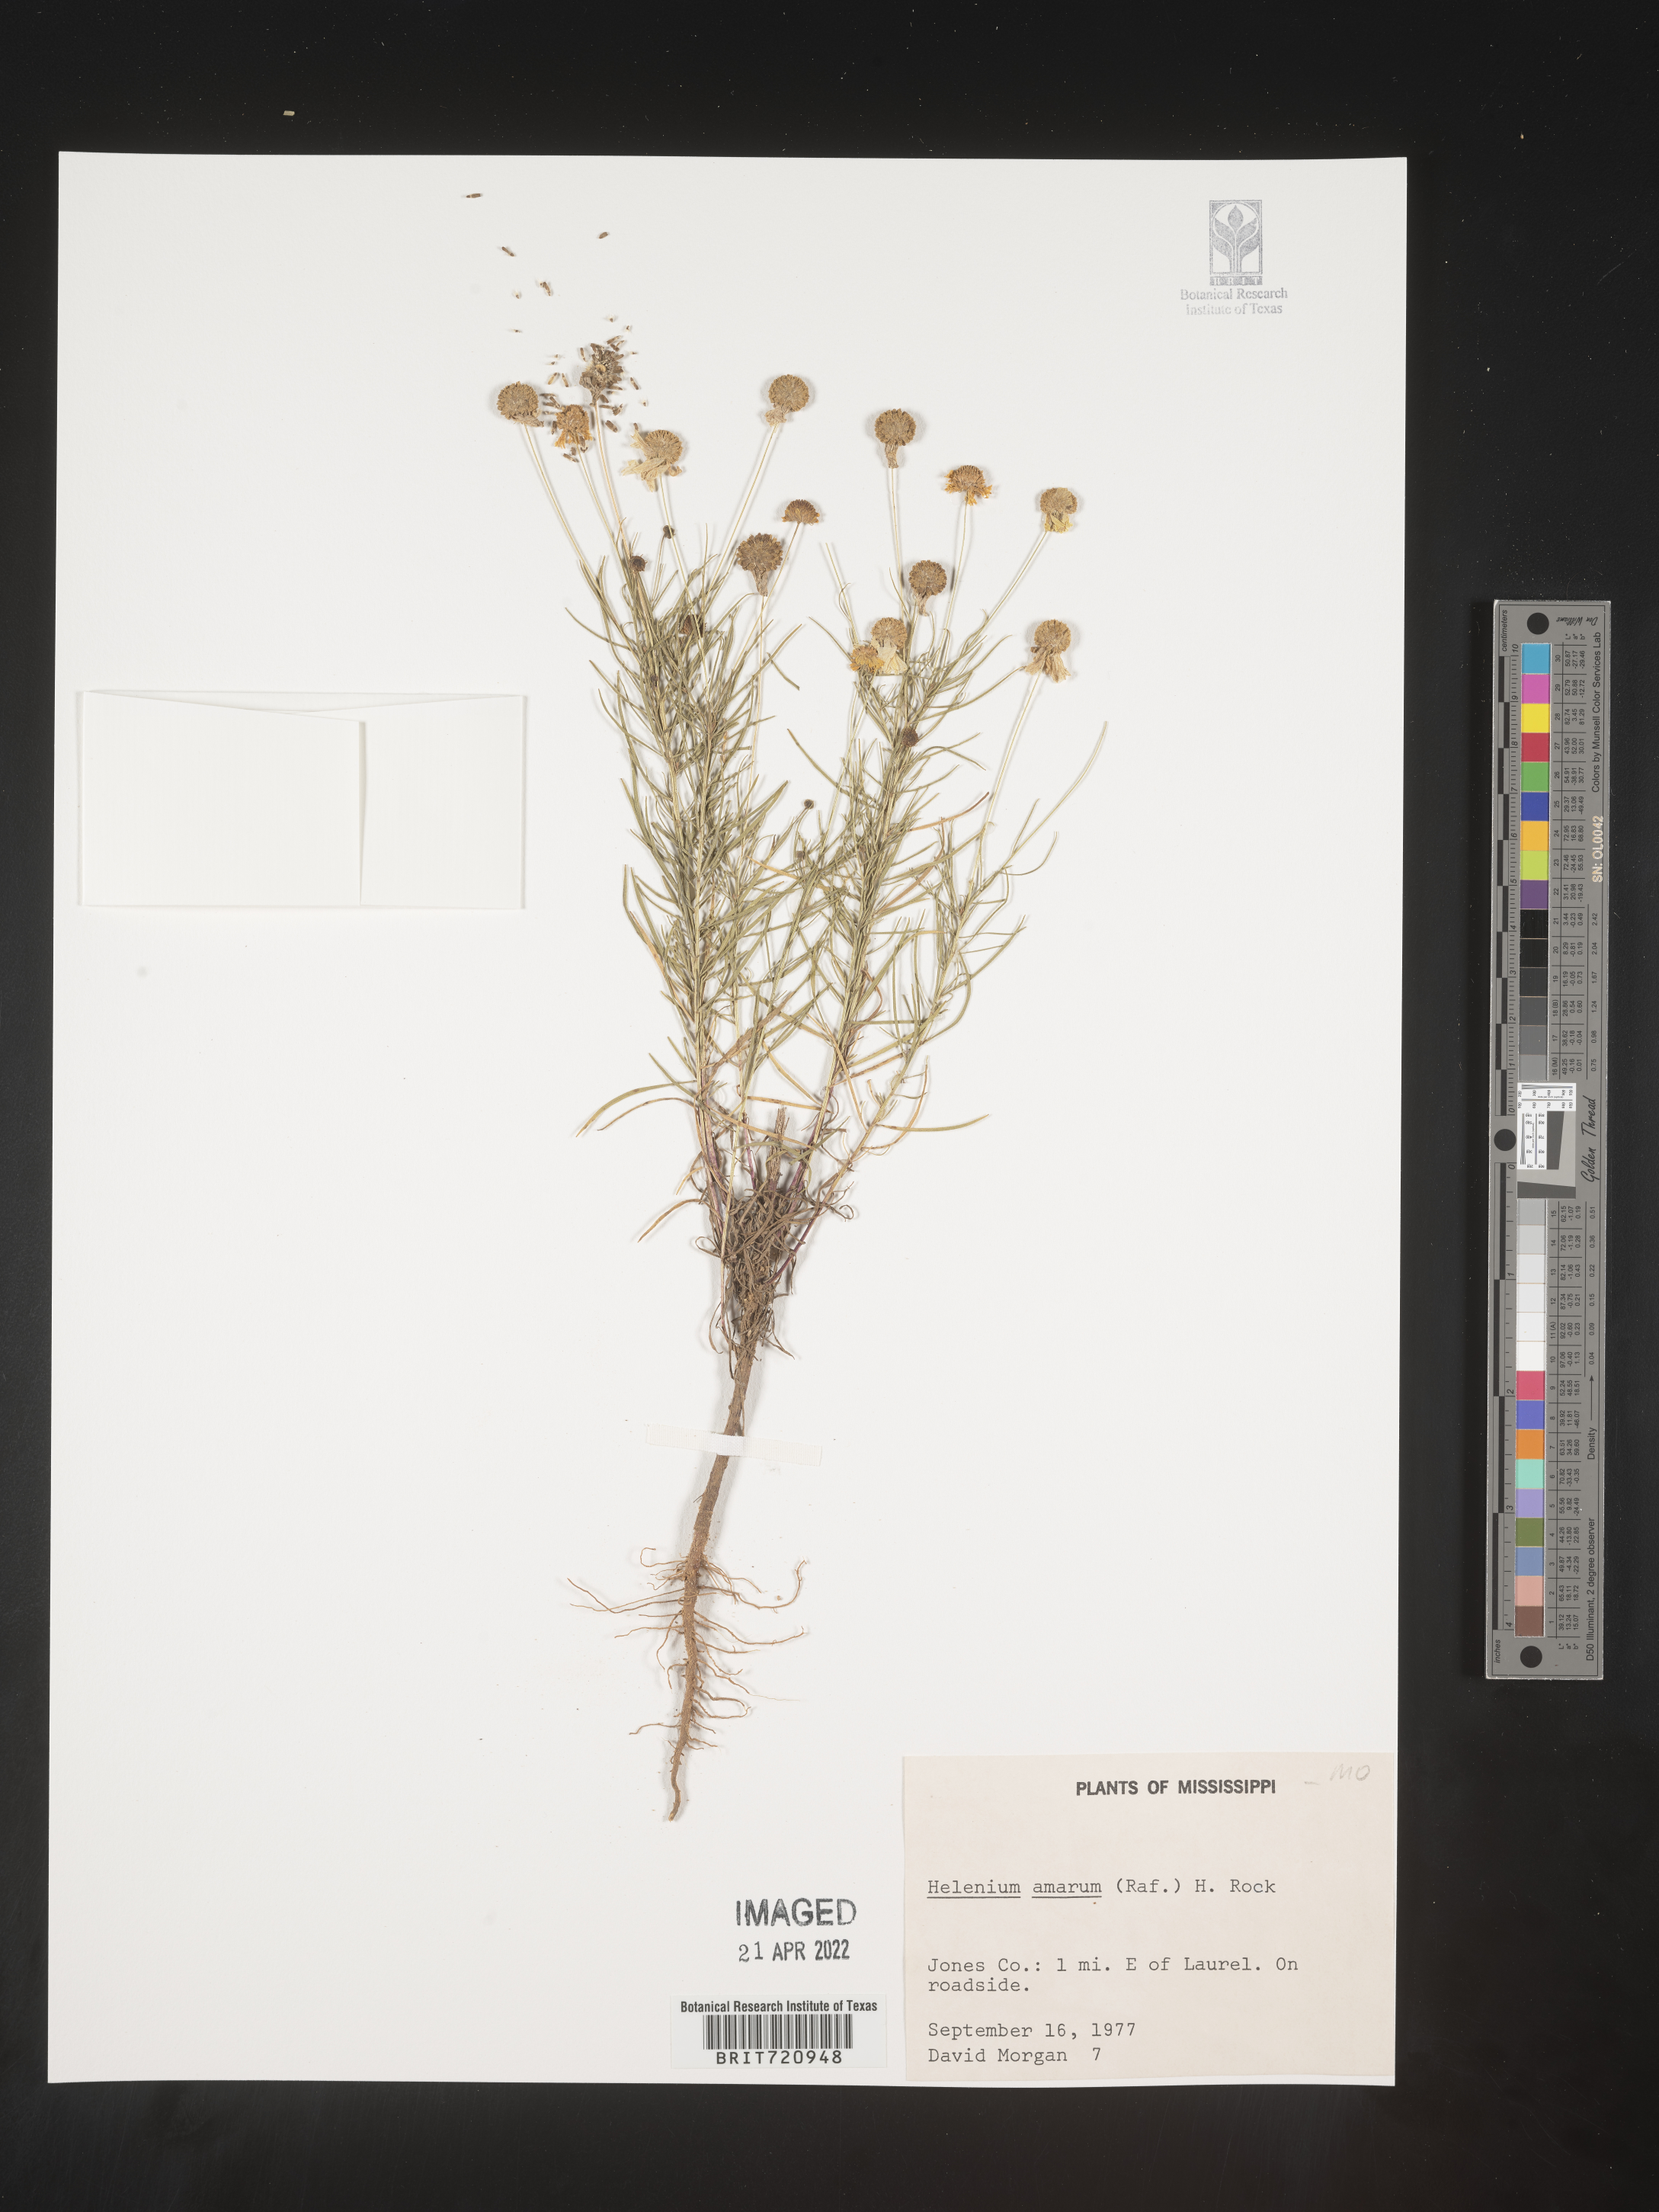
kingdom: Plantae
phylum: Tracheophyta
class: Magnoliopsida
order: Asterales
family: Asteraceae
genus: Helenium
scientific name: Helenium amarum
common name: Bitter sneezeweed
